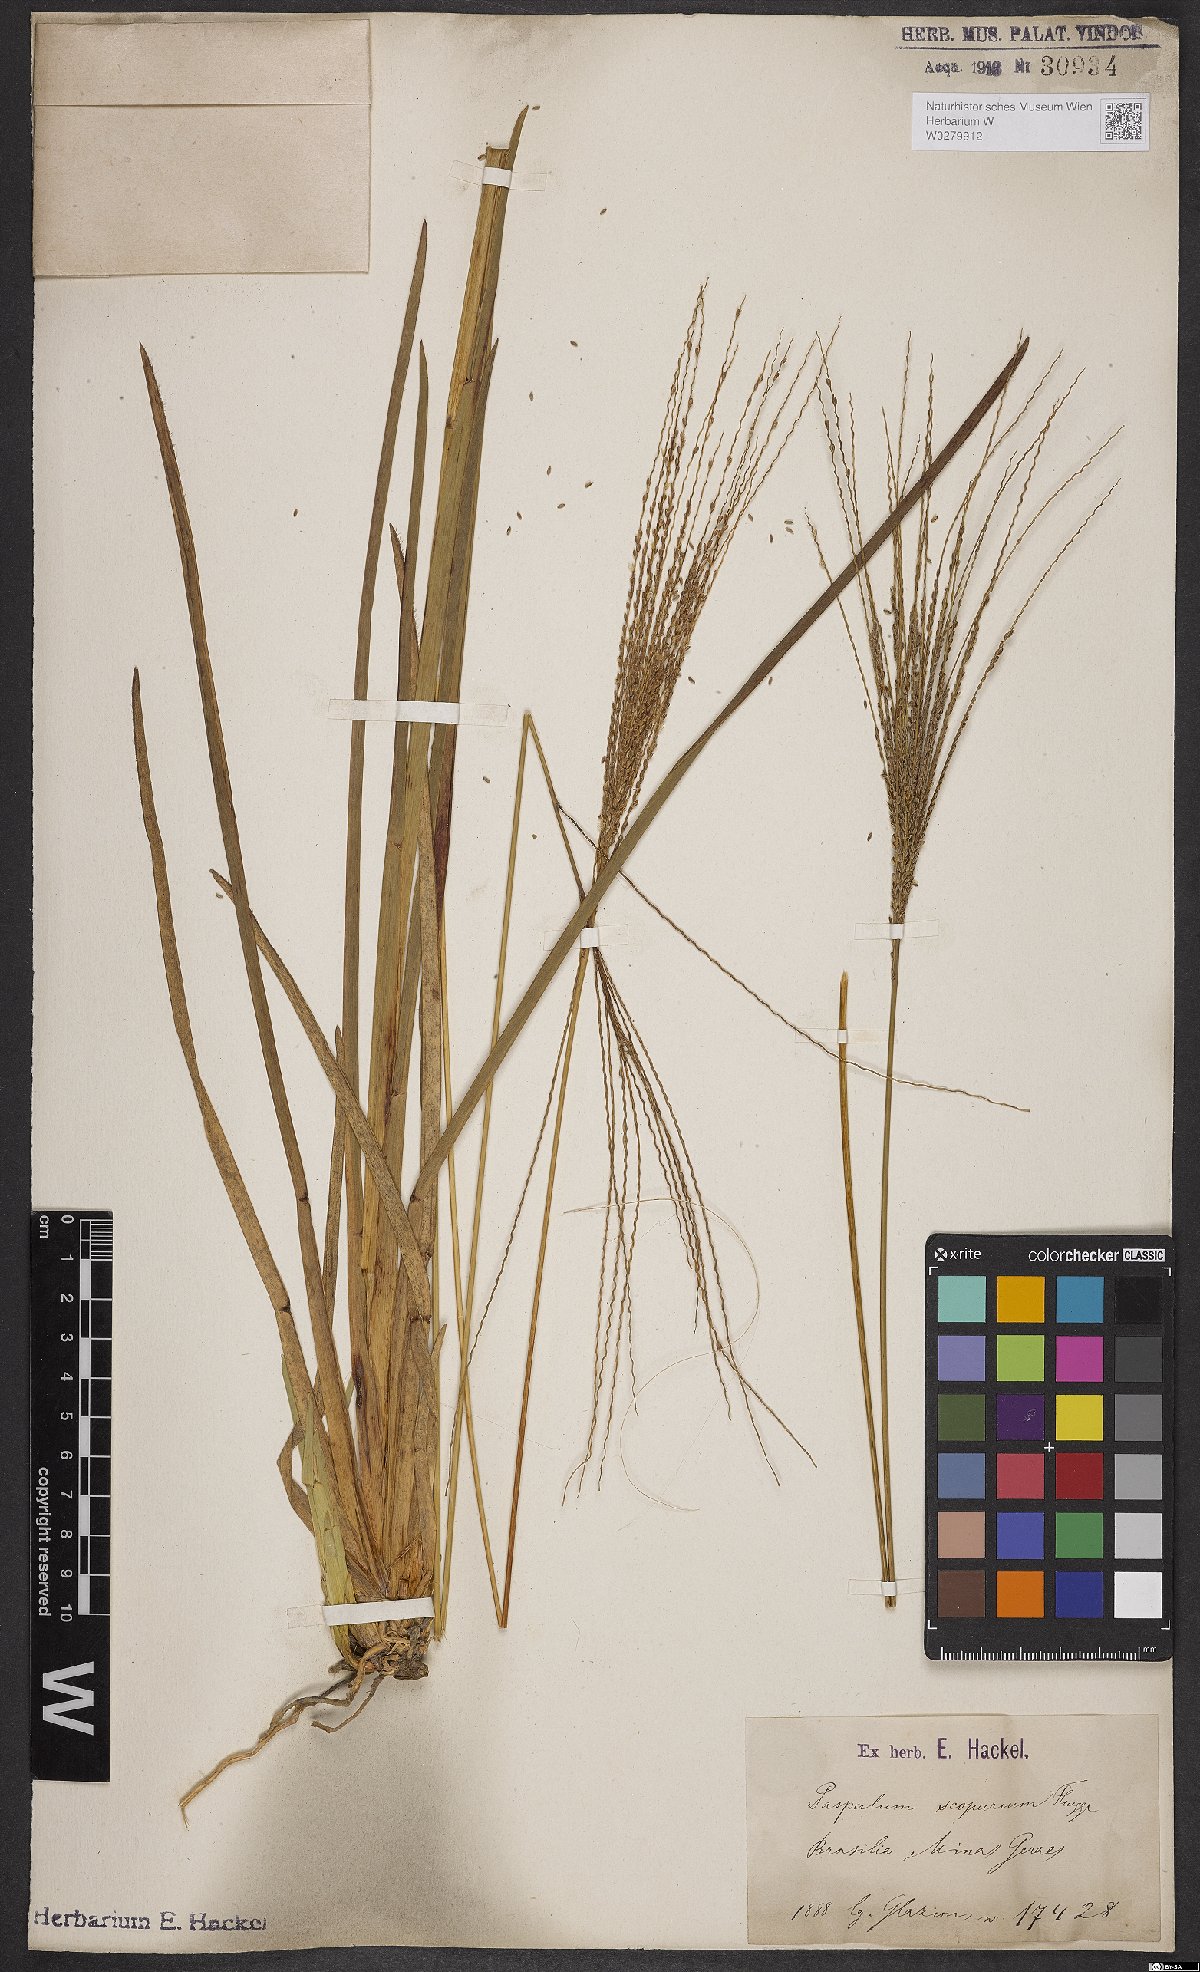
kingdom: Plantae
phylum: Tracheophyta
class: Liliopsida
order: Poales
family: Poaceae
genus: Axonopus
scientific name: Axonopus scoparius
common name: Imperial grass
